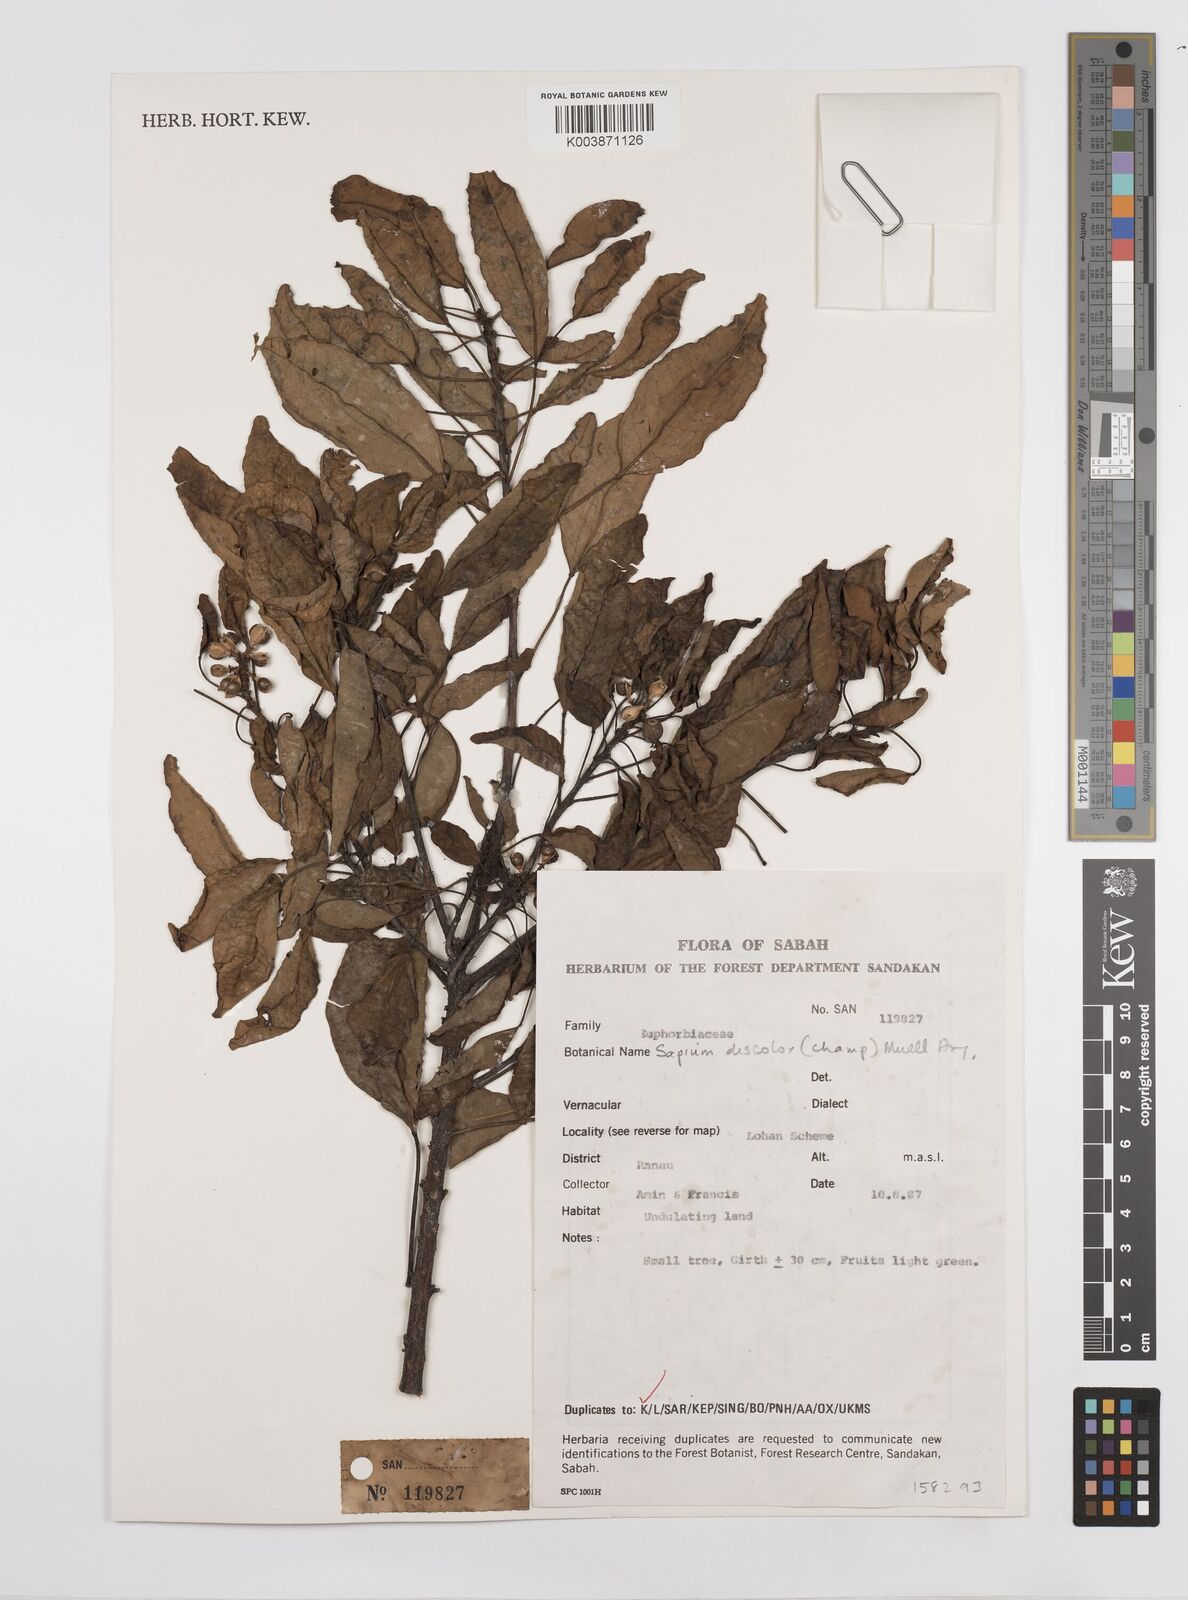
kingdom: Plantae
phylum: Tracheophyta
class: Magnoliopsida
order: Malpighiales
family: Euphorbiaceae
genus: Triadica
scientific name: Triadica cochinchinensis
